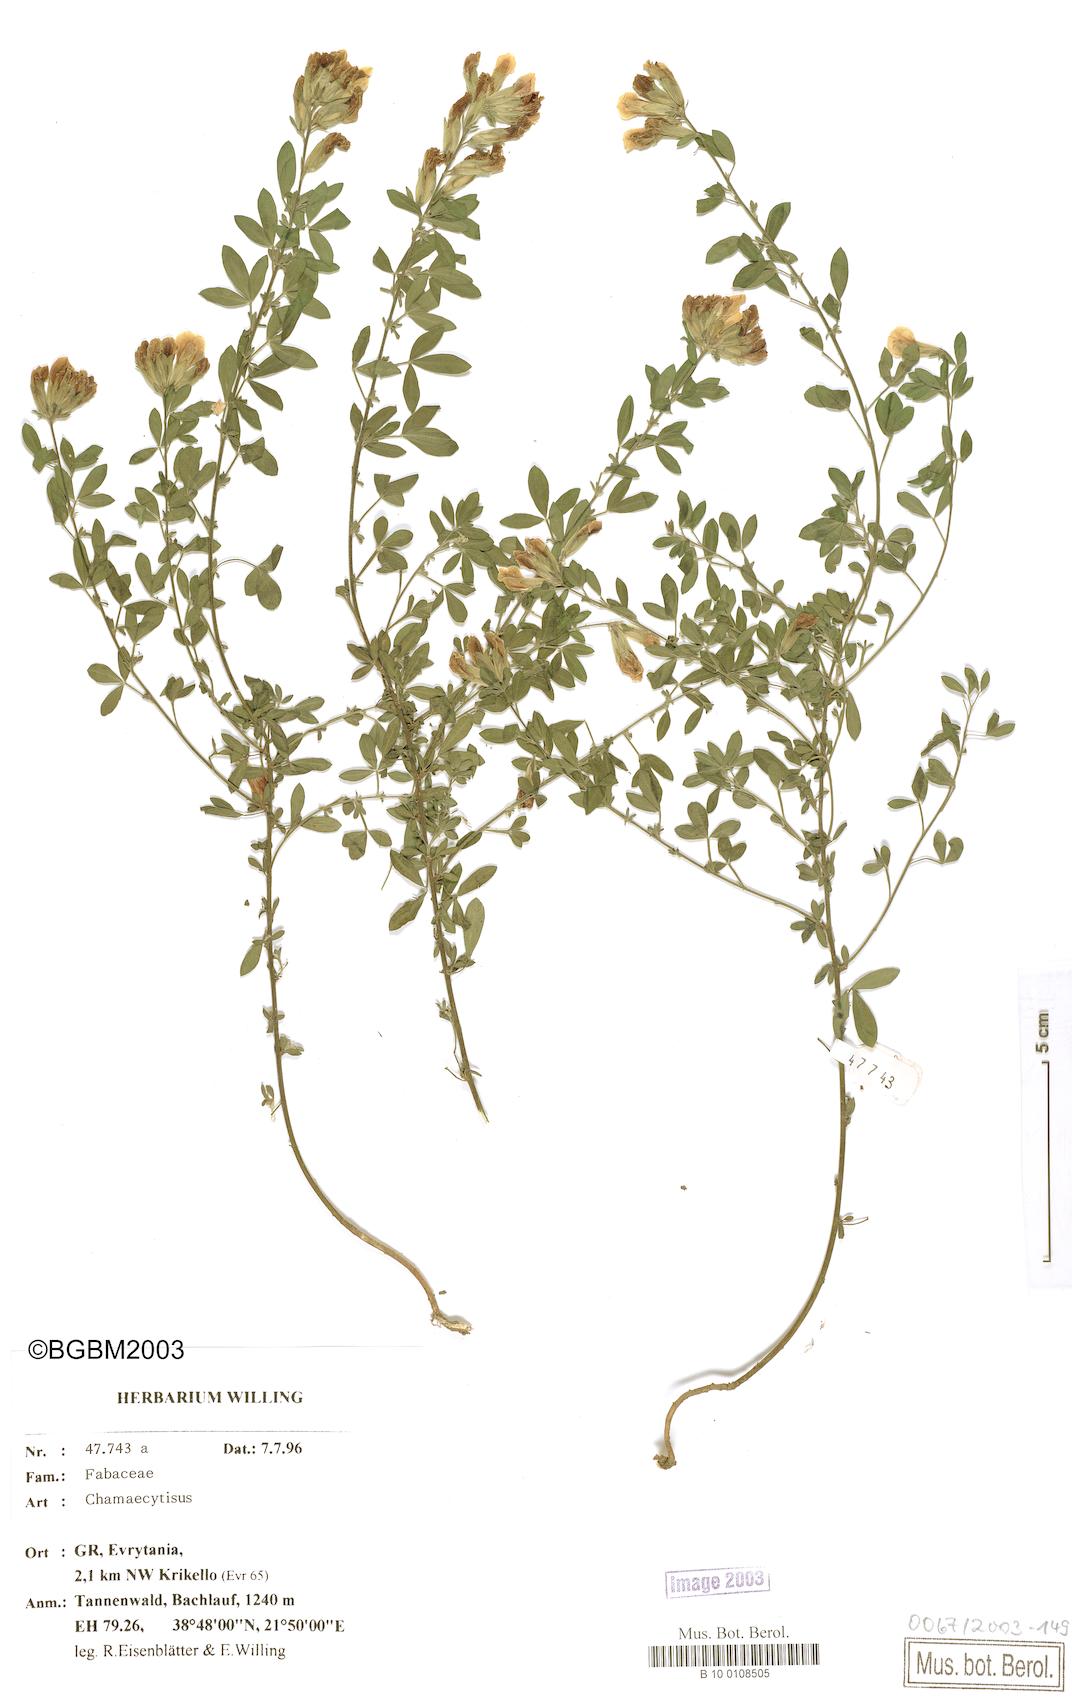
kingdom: Plantae
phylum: Tracheophyta
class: Magnoliopsida
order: Fabales
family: Fabaceae
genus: Chamaecytisus
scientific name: Chamaecytisus
